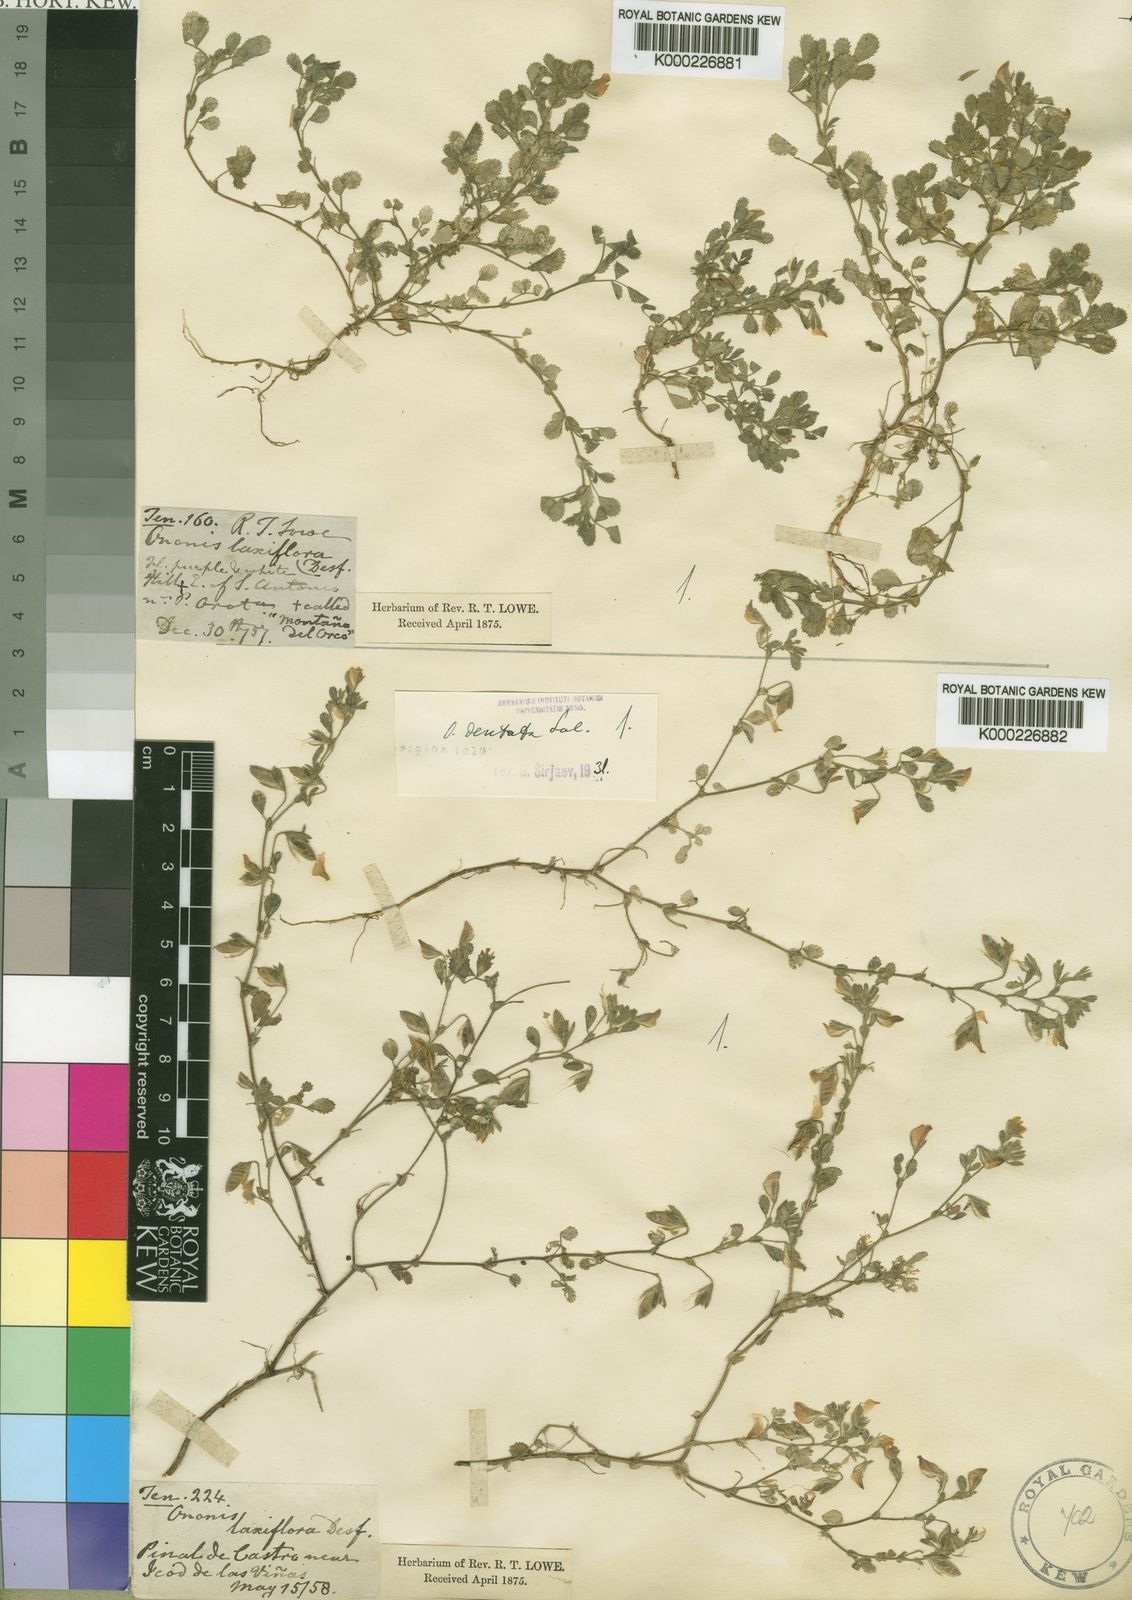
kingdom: Plantae
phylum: Tracheophyta
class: Magnoliopsida
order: Fabales
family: Fabaceae
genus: Ononis
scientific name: Ononis dentata
